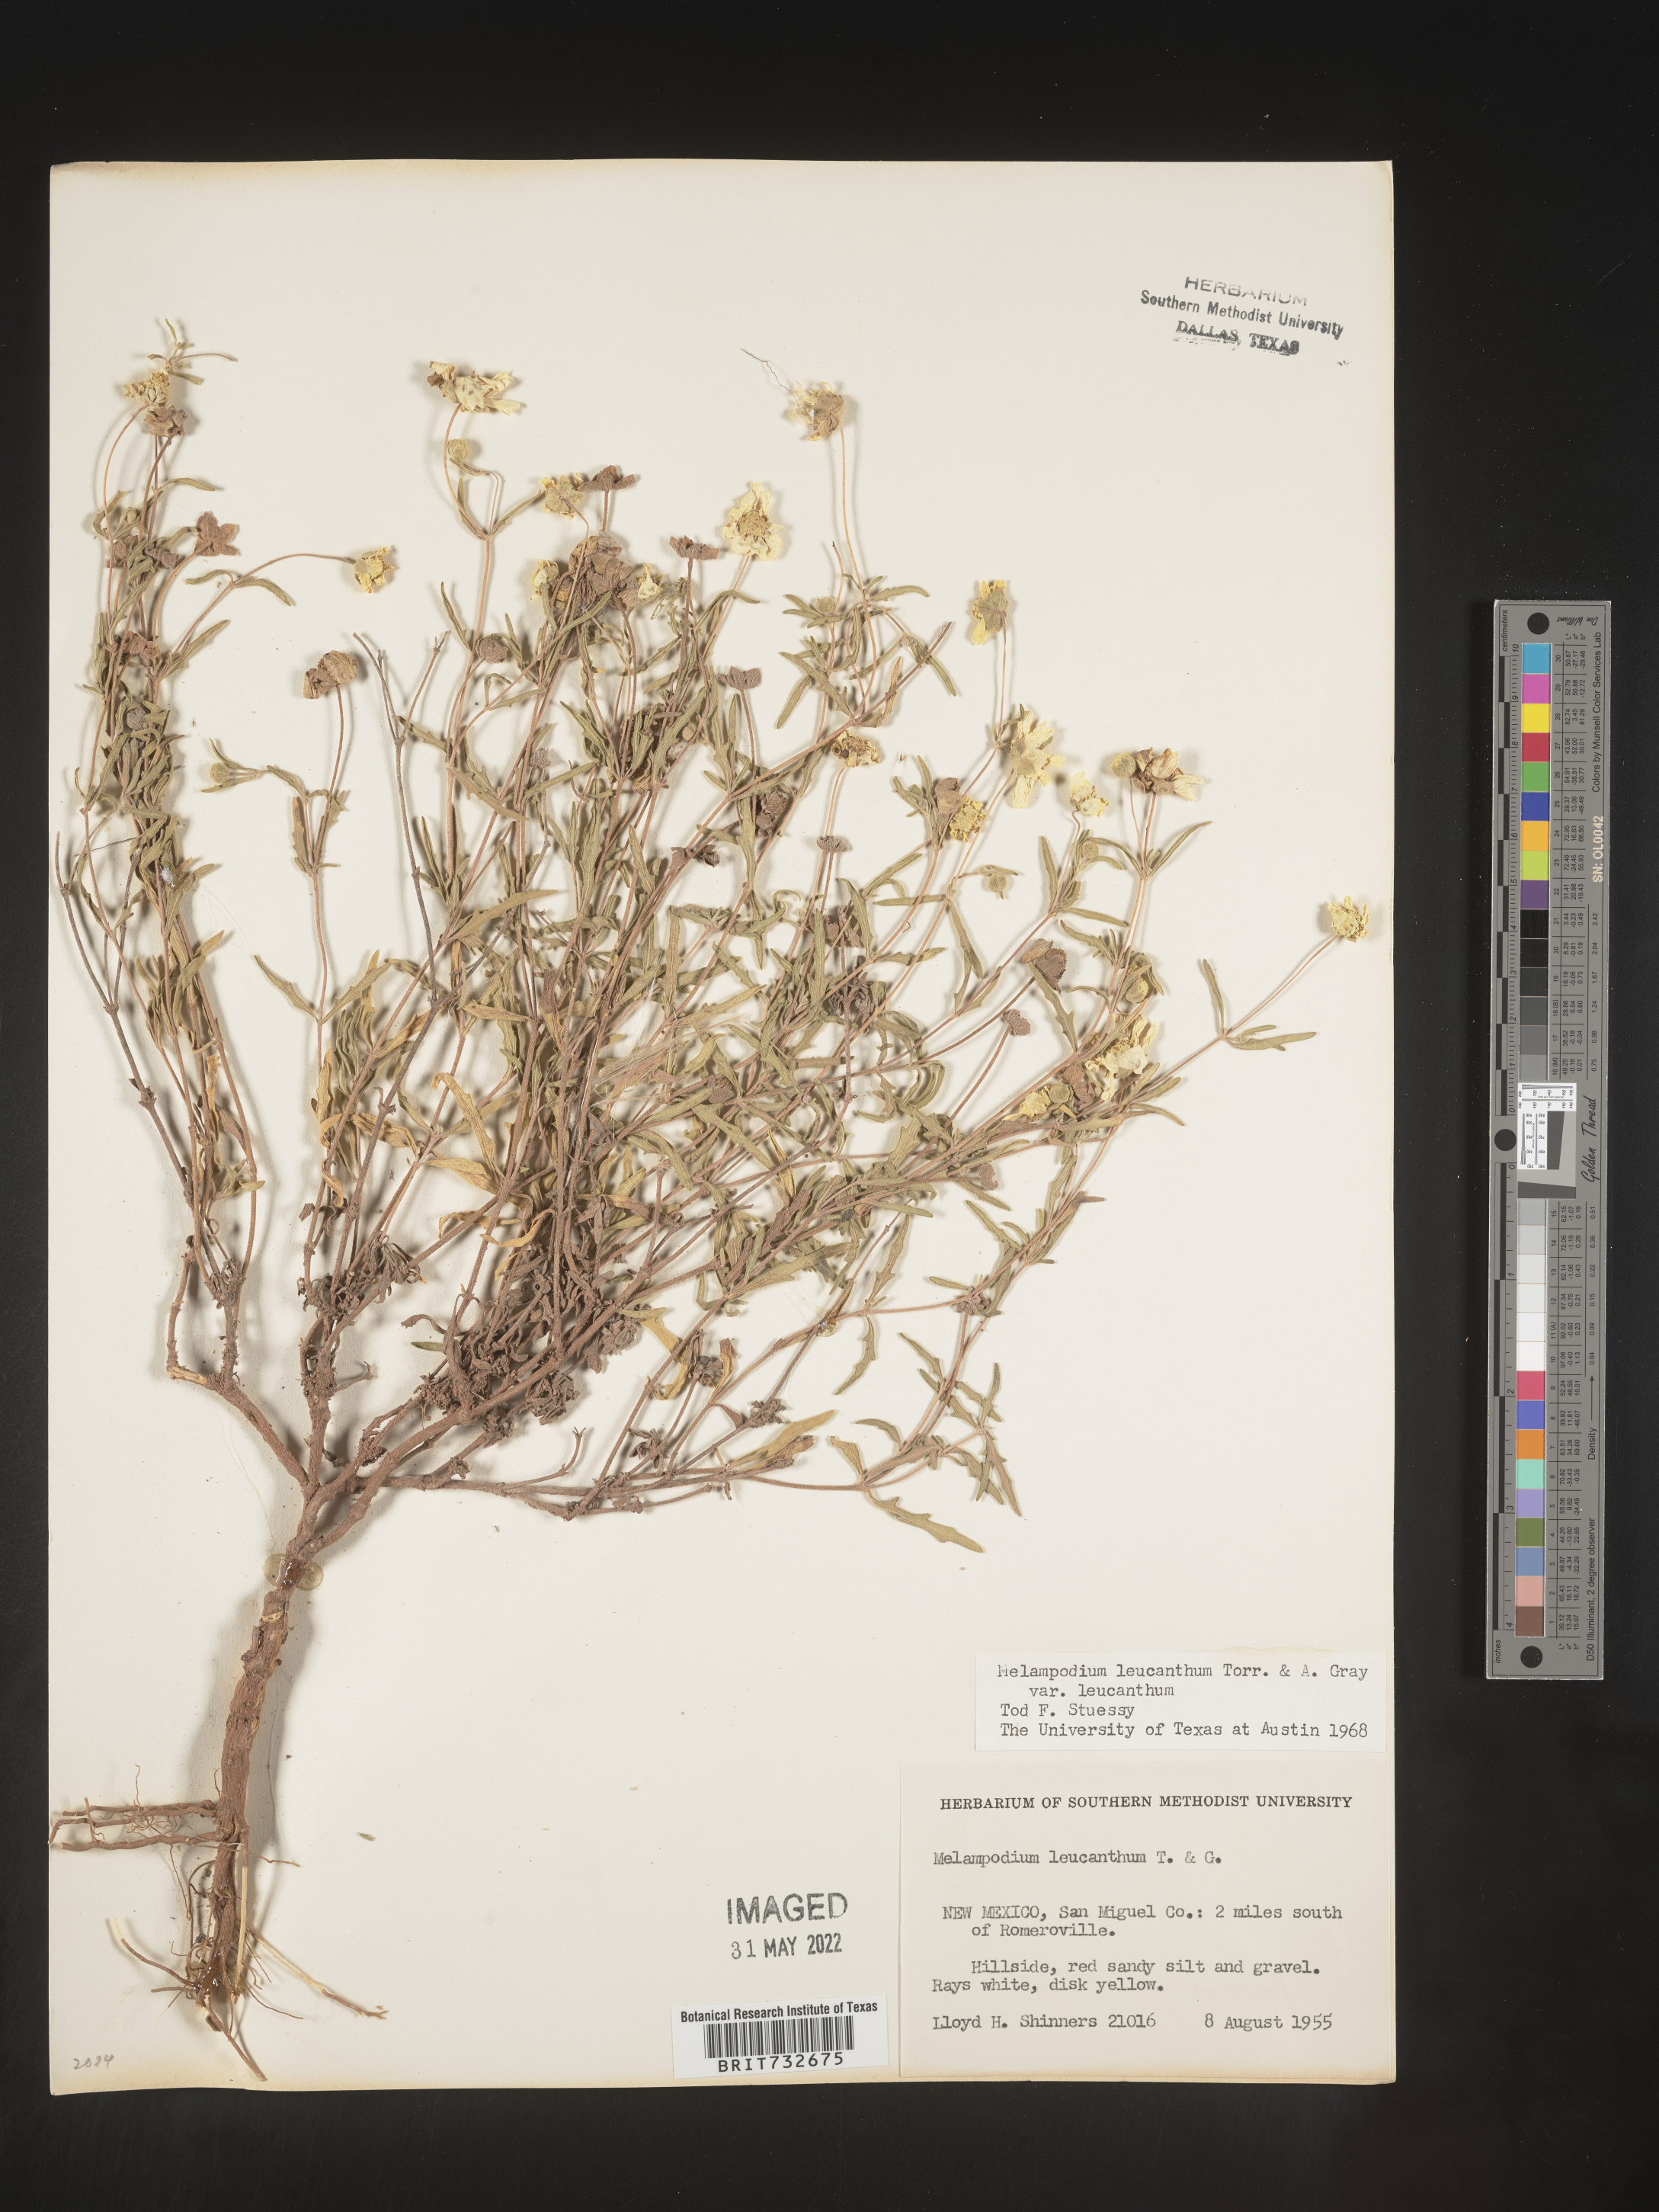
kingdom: Plantae
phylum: Tracheophyta
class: Magnoliopsida
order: Asterales
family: Asteraceae
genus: Melampodium
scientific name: Melampodium leucanthum
